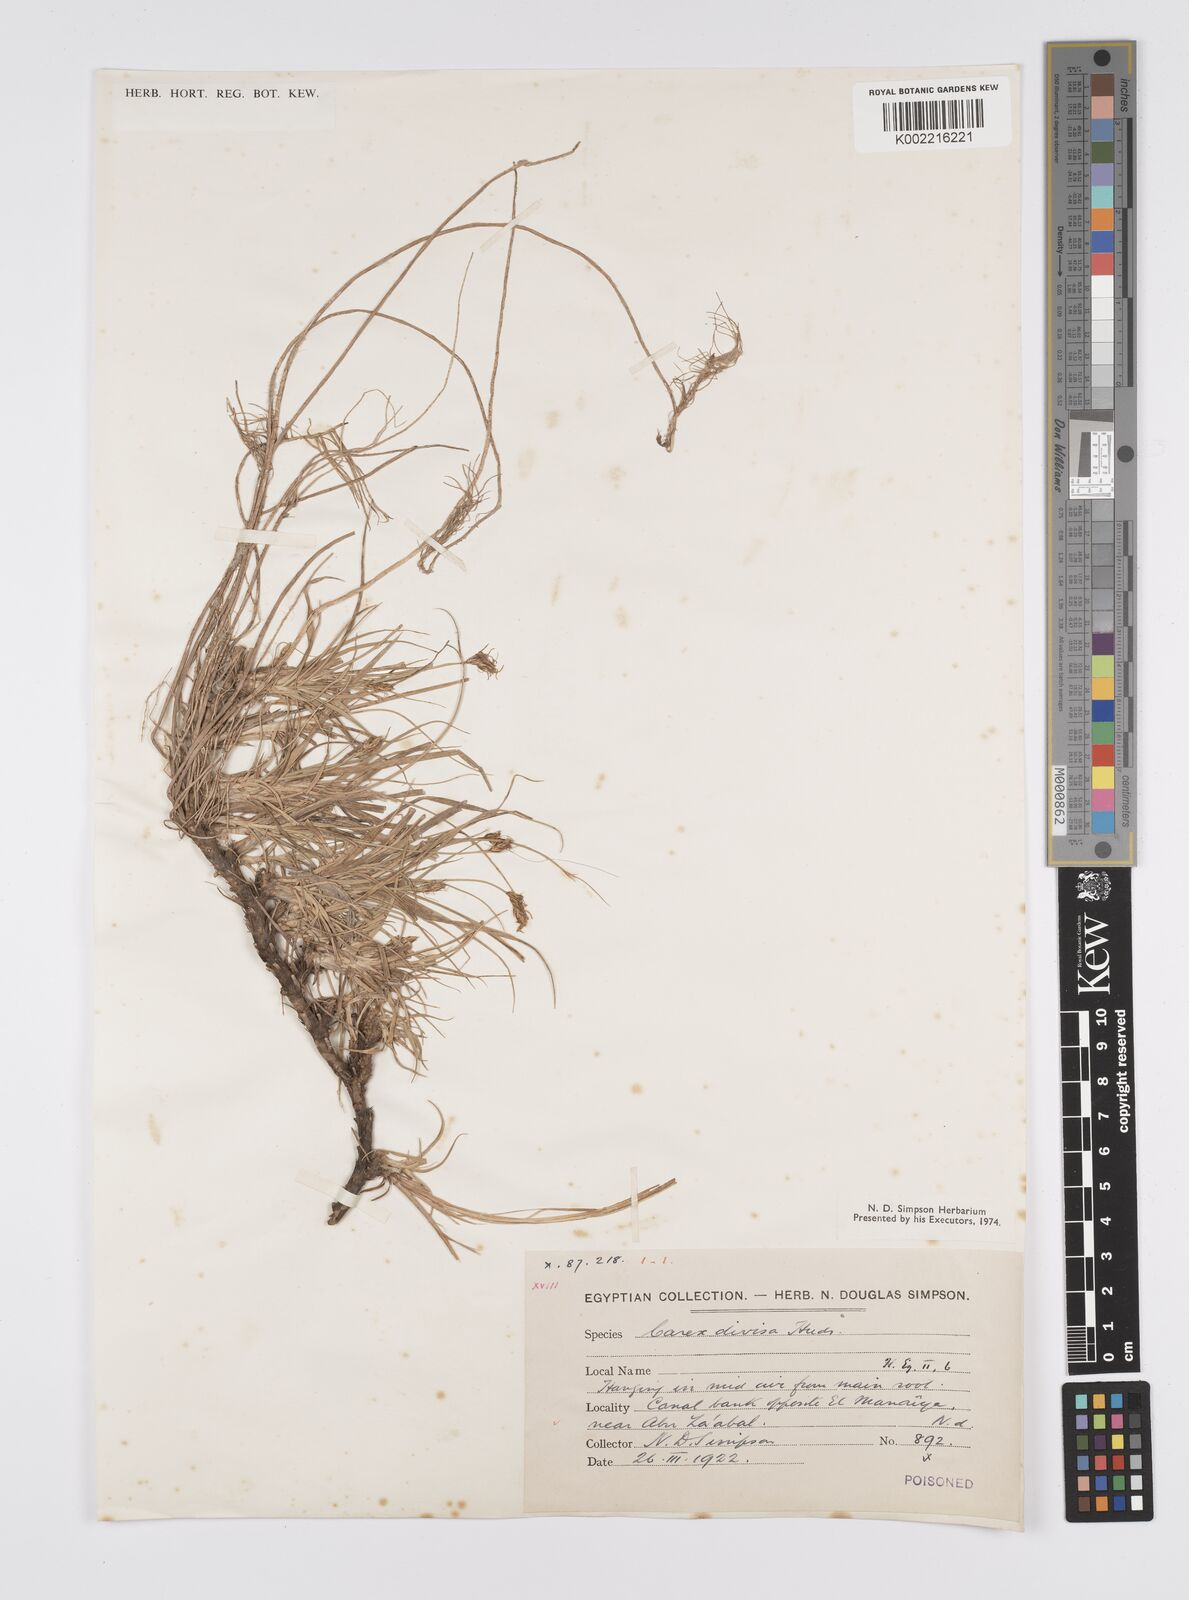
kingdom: Plantae
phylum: Tracheophyta
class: Liliopsida
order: Poales
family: Cyperaceae
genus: Carex
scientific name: Carex divisa
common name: Divided sedge
